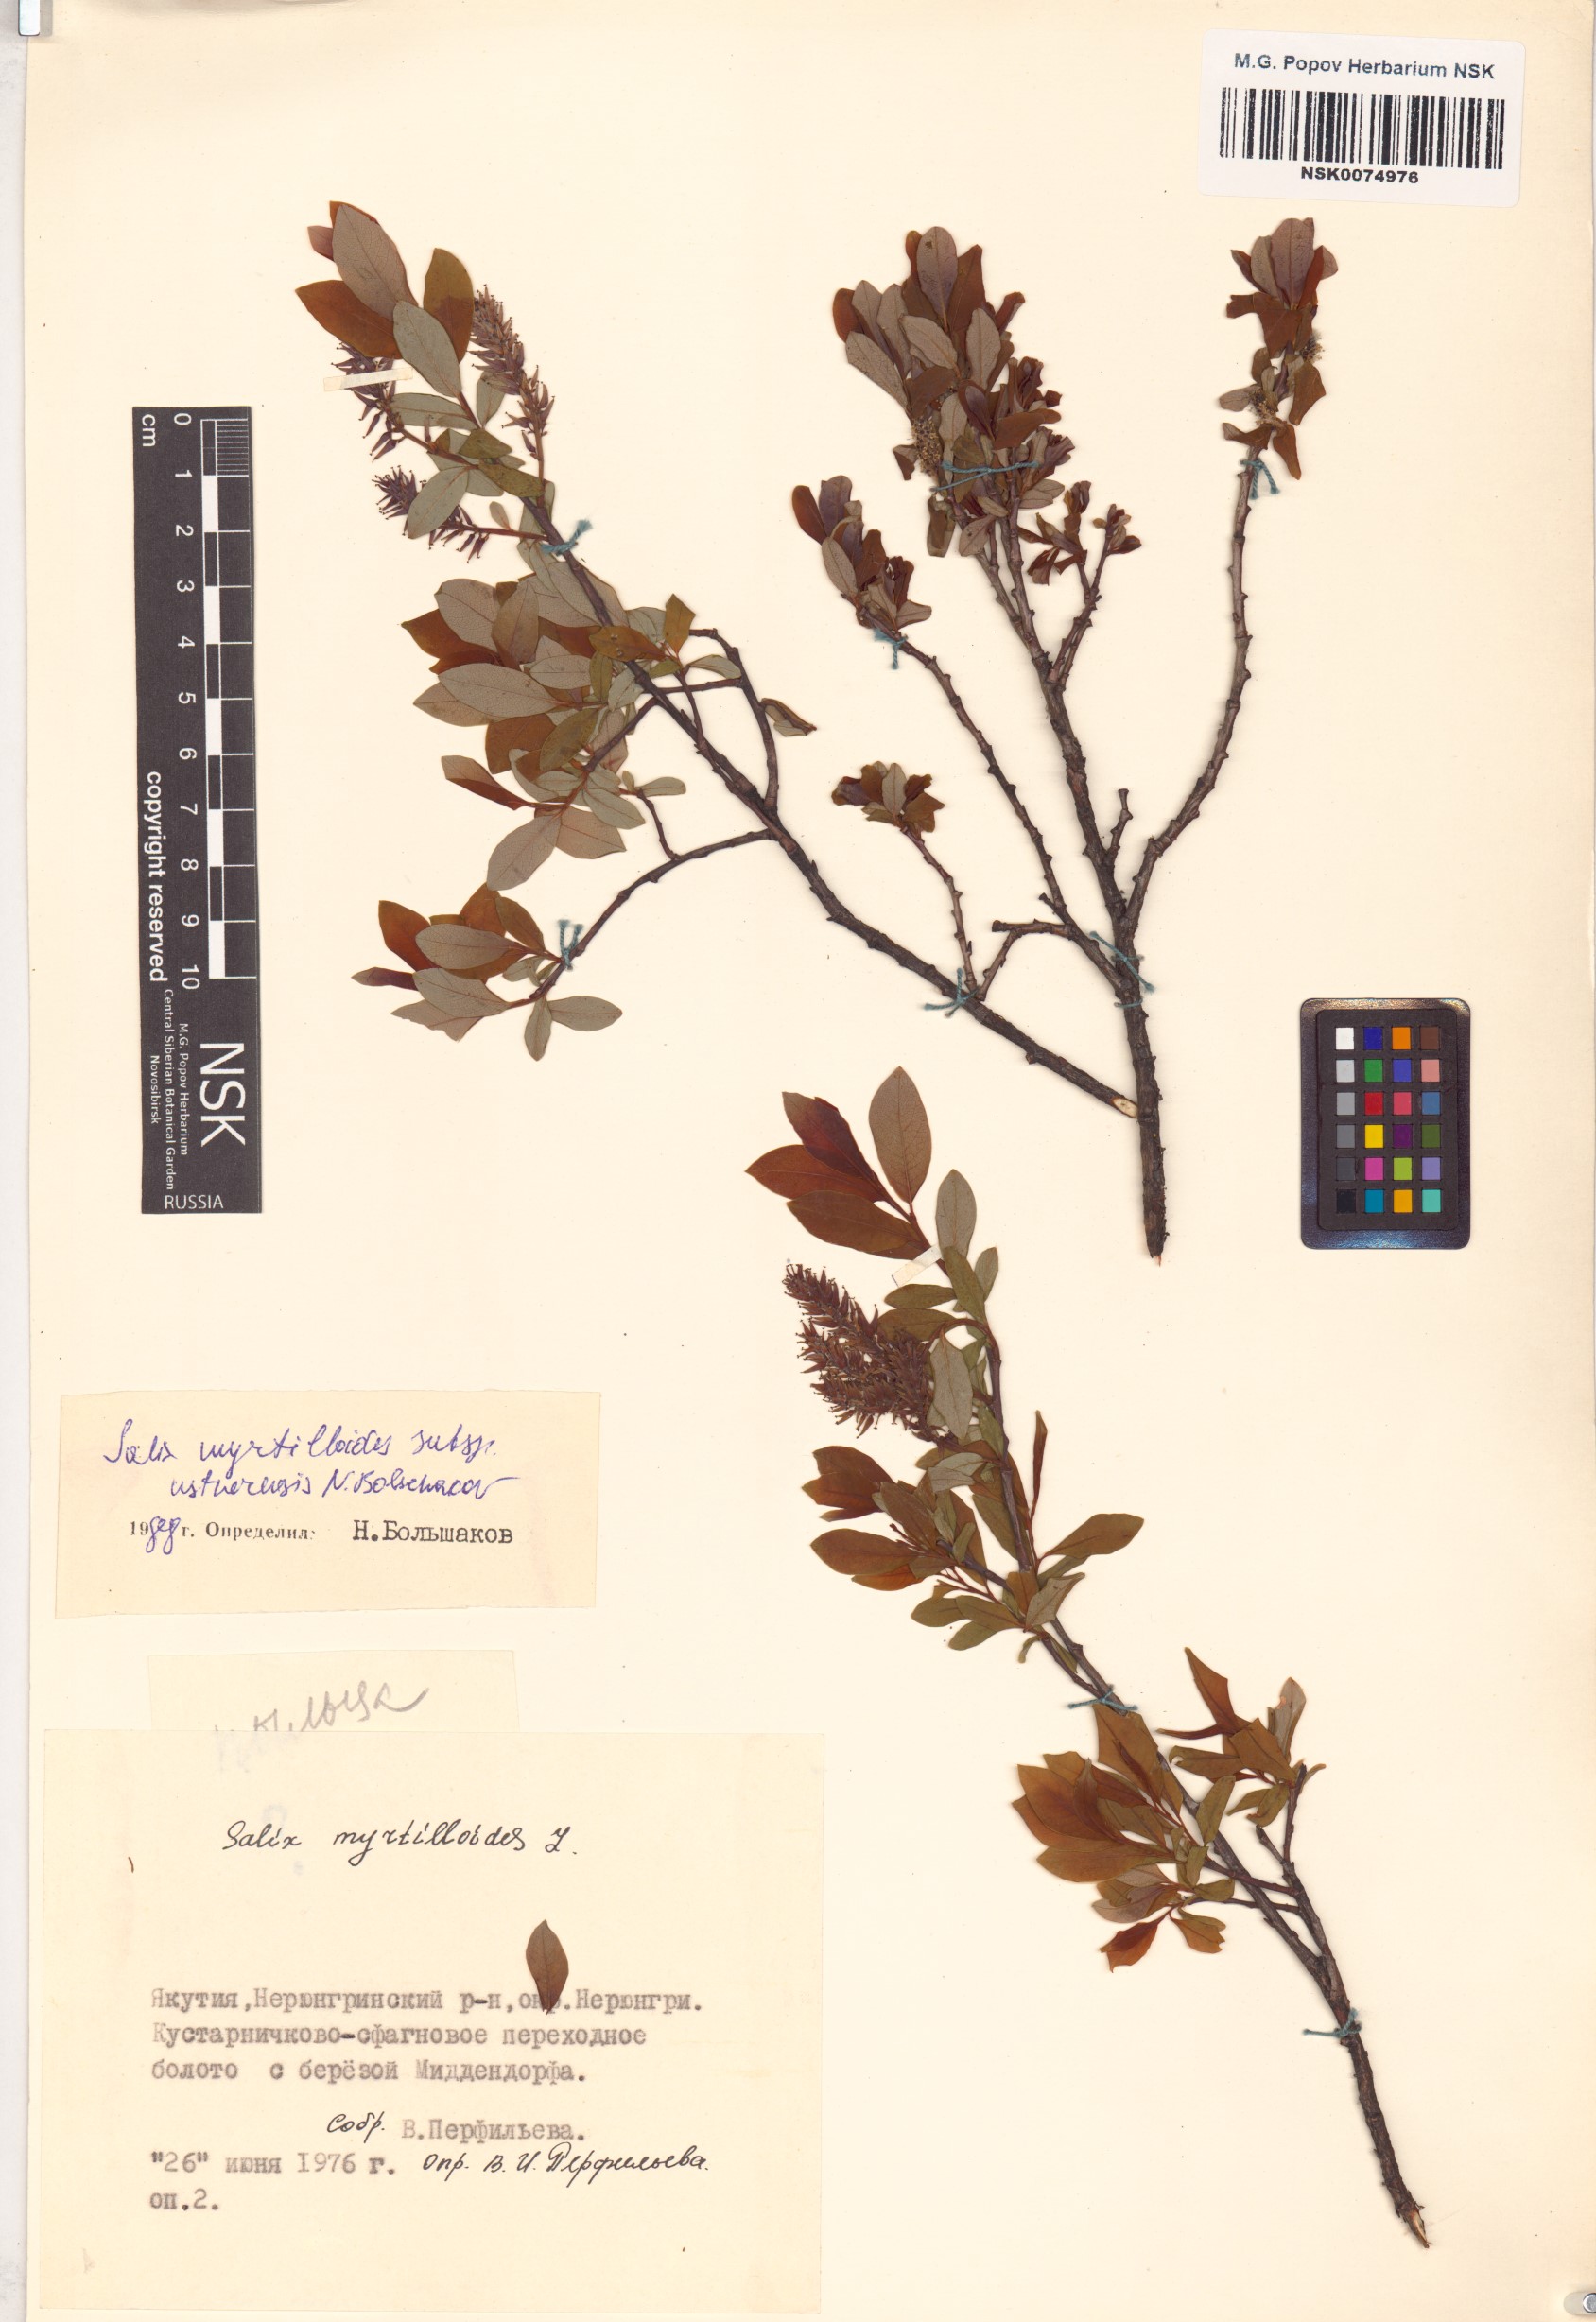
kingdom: Plantae
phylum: Tracheophyta
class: Magnoliopsida
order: Malpighiales
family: Salicaceae
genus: Salix
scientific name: Salix ustnerensis
